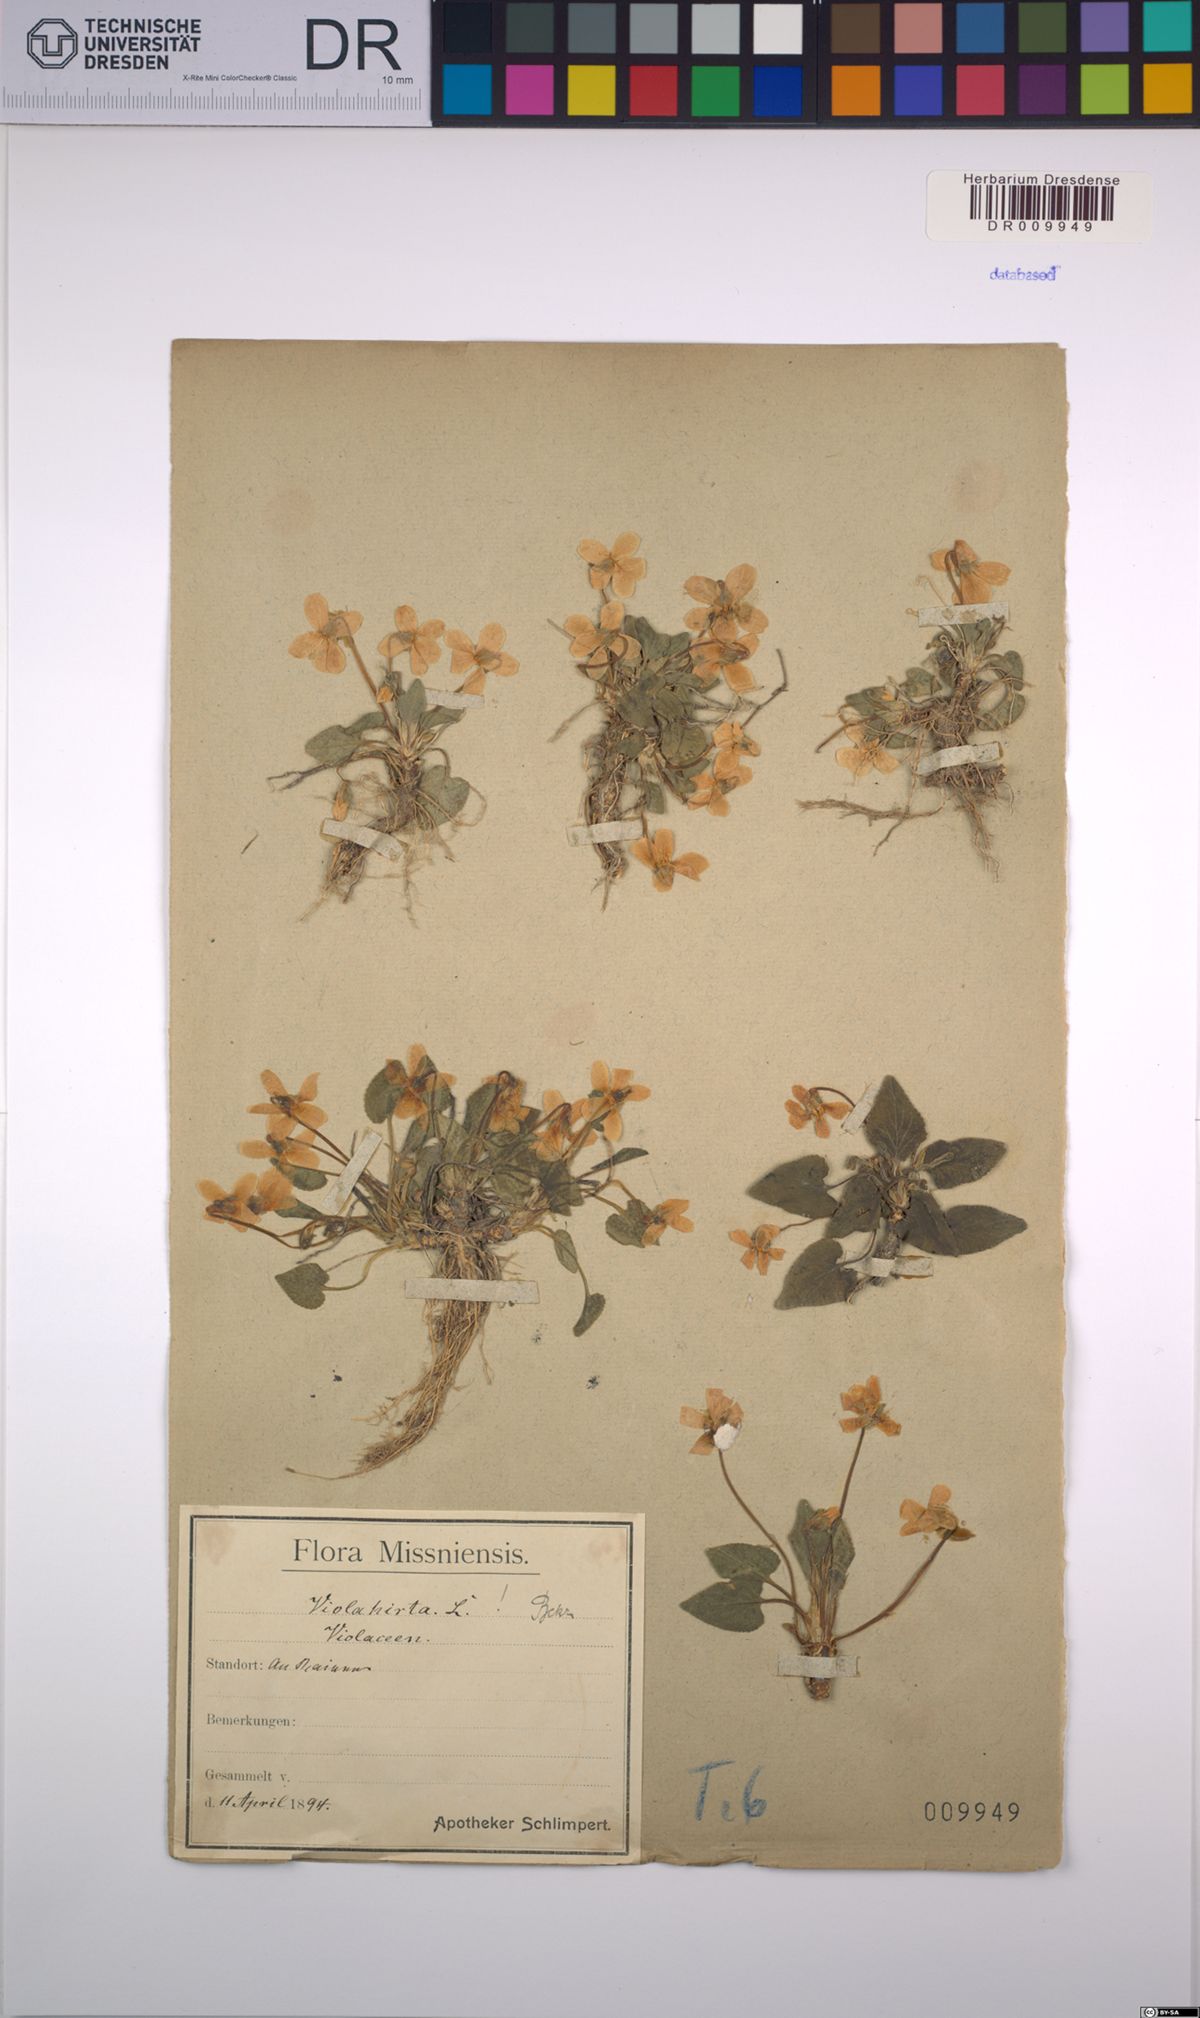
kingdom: Plantae
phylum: Tracheophyta
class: Magnoliopsida
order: Malpighiales
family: Violaceae
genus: Viola
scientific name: Viola hirta
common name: Hairy violet
